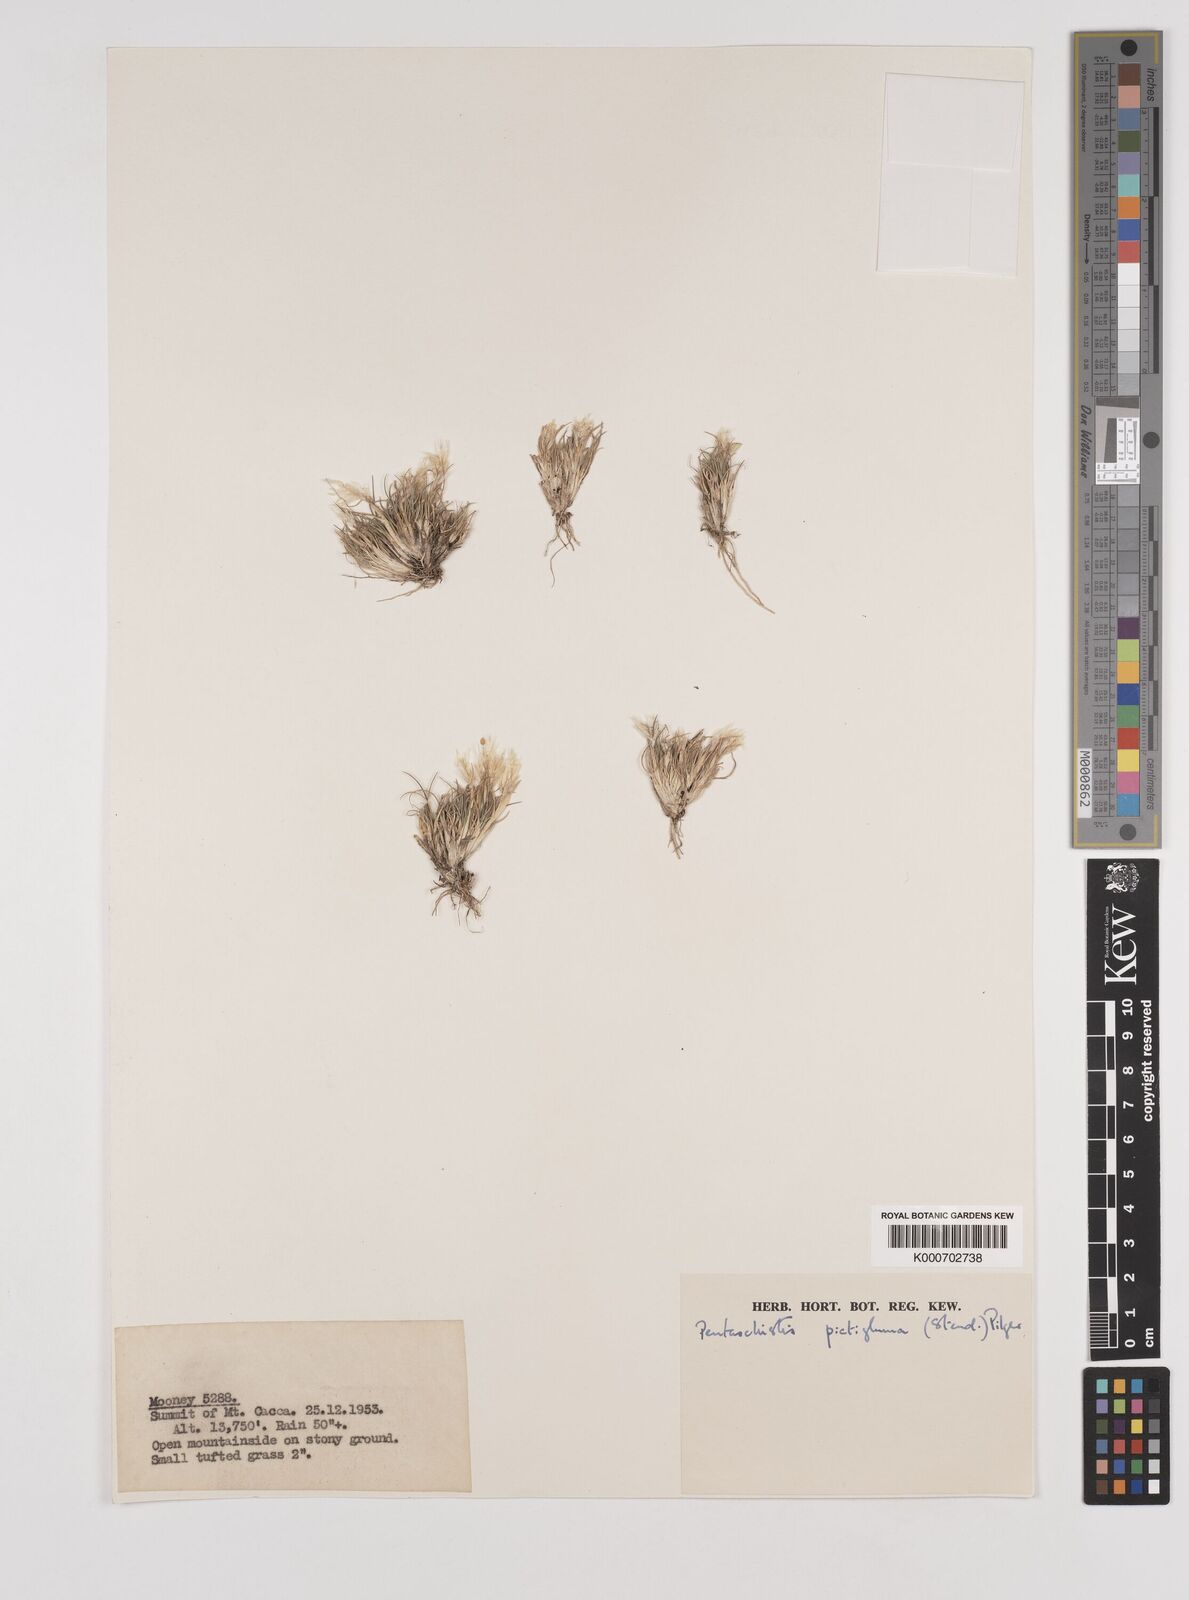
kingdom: Plantae
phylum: Tracheophyta
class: Liliopsida
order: Poales
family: Poaceae
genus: Pentameris
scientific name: Pentameris pictigluma
